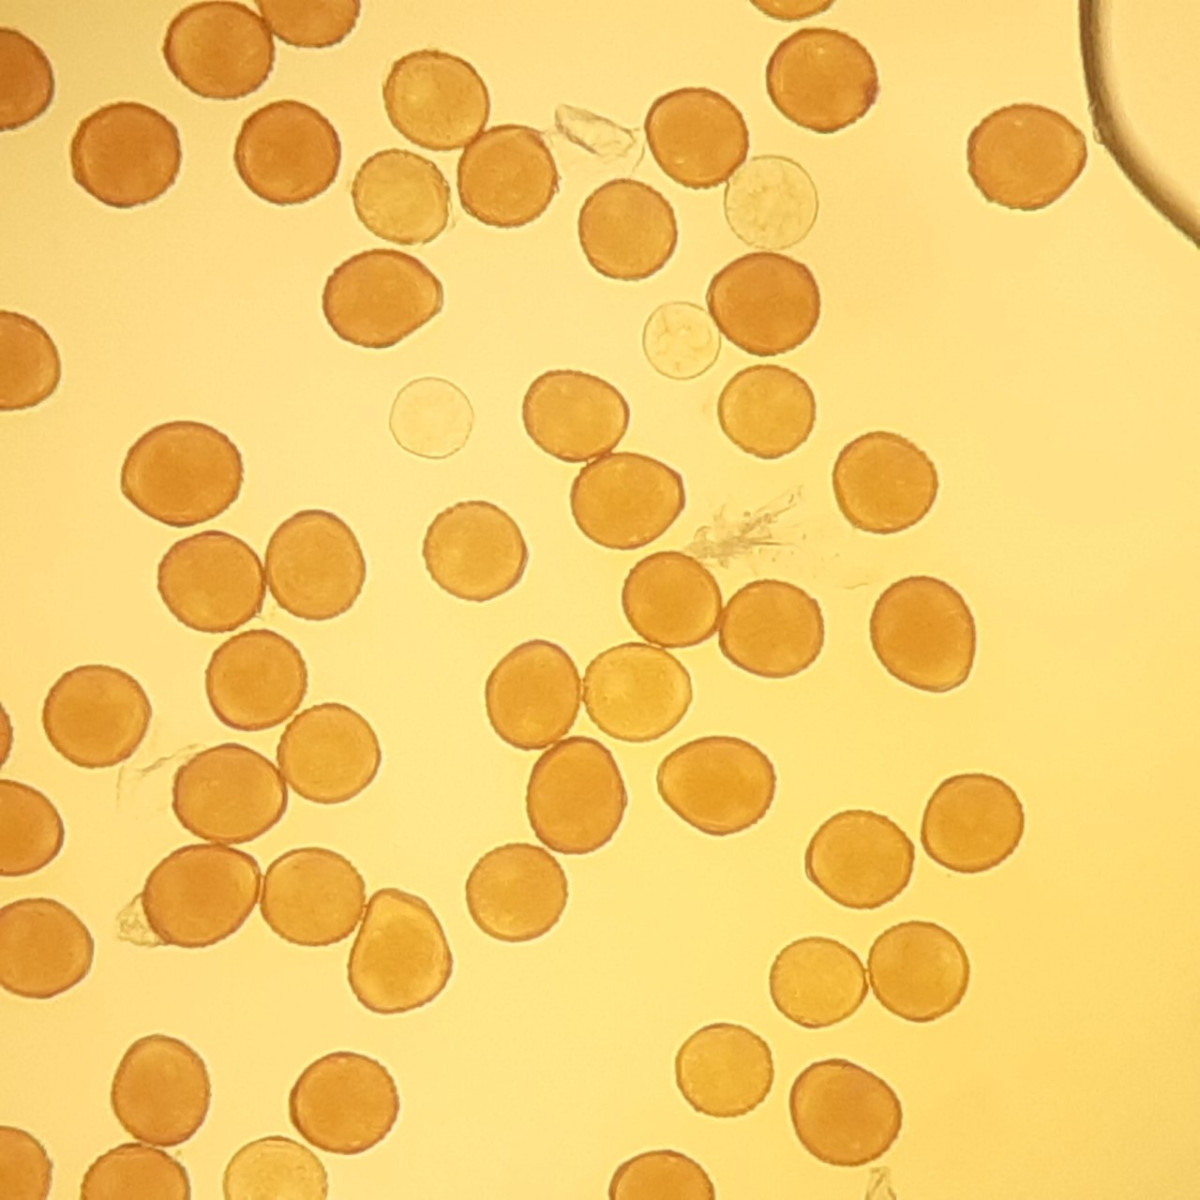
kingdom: Fungi
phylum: Basidiomycota
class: Pucciniomycetes
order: Pucciniales
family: Pucciniaceae
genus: Puccinia
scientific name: Puccinia laschii
